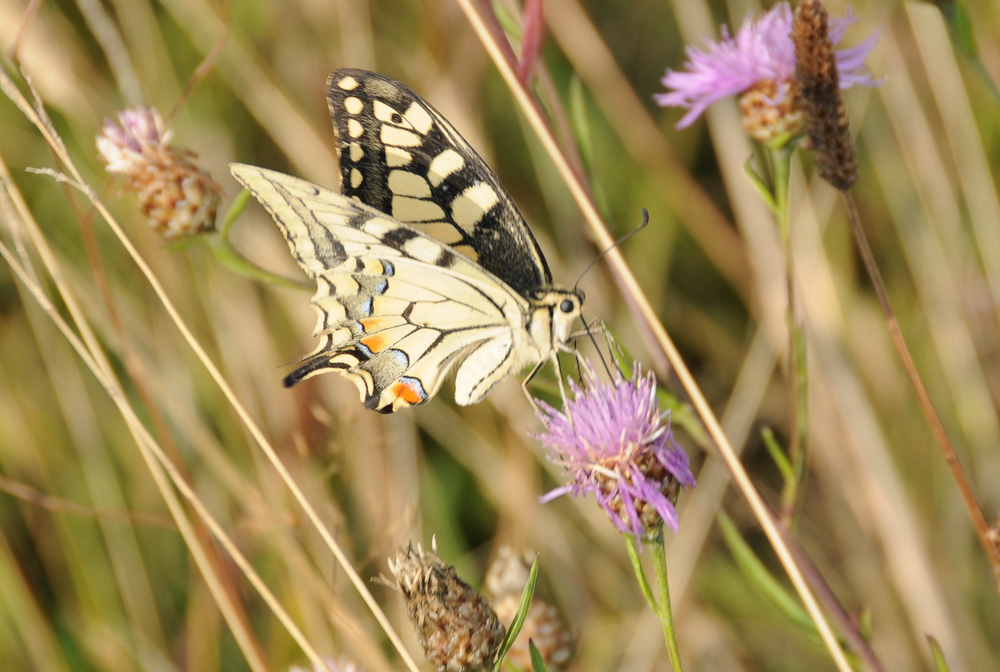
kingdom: Animalia
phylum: Arthropoda
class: Insecta
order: Lepidoptera
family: Papilionidae
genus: Papilio
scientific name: Papilio machaon
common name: Swallowtail
